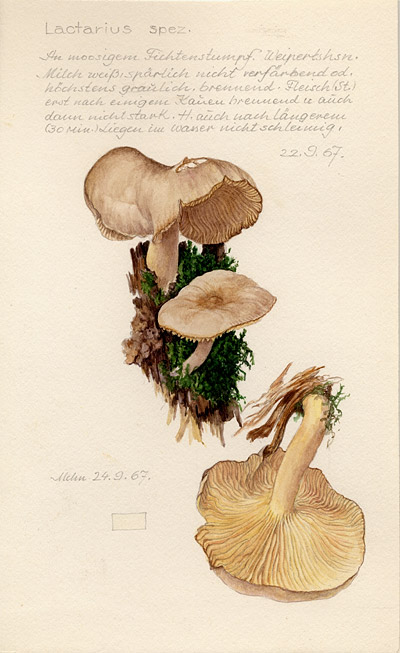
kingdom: Fungi
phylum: Basidiomycota
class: Agaricomycetes
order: Russulales
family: Russulaceae
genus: Lactarius
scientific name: Lactarius
